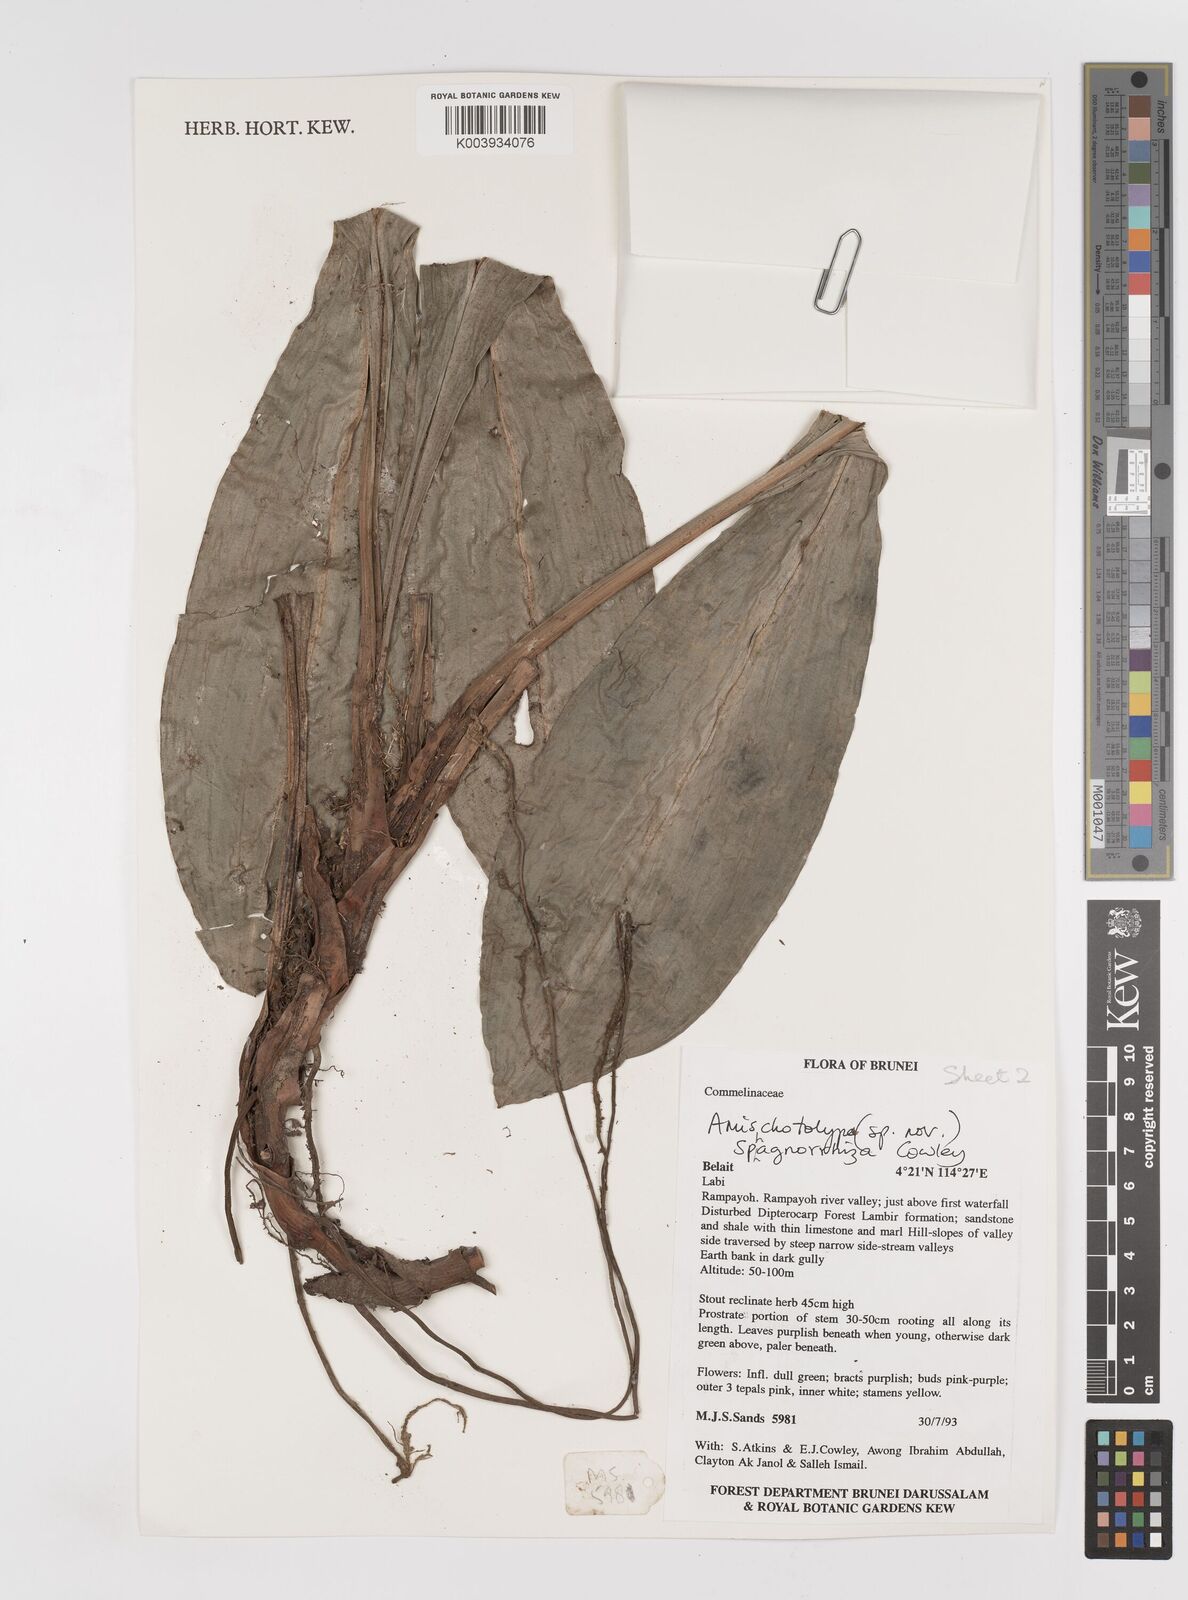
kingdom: Plantae
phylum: Tracheophyta
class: Liliopsida
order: Commelinales
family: Commelinaceae
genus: Amischotolype
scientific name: Amischotolype sphagnorrhiza
